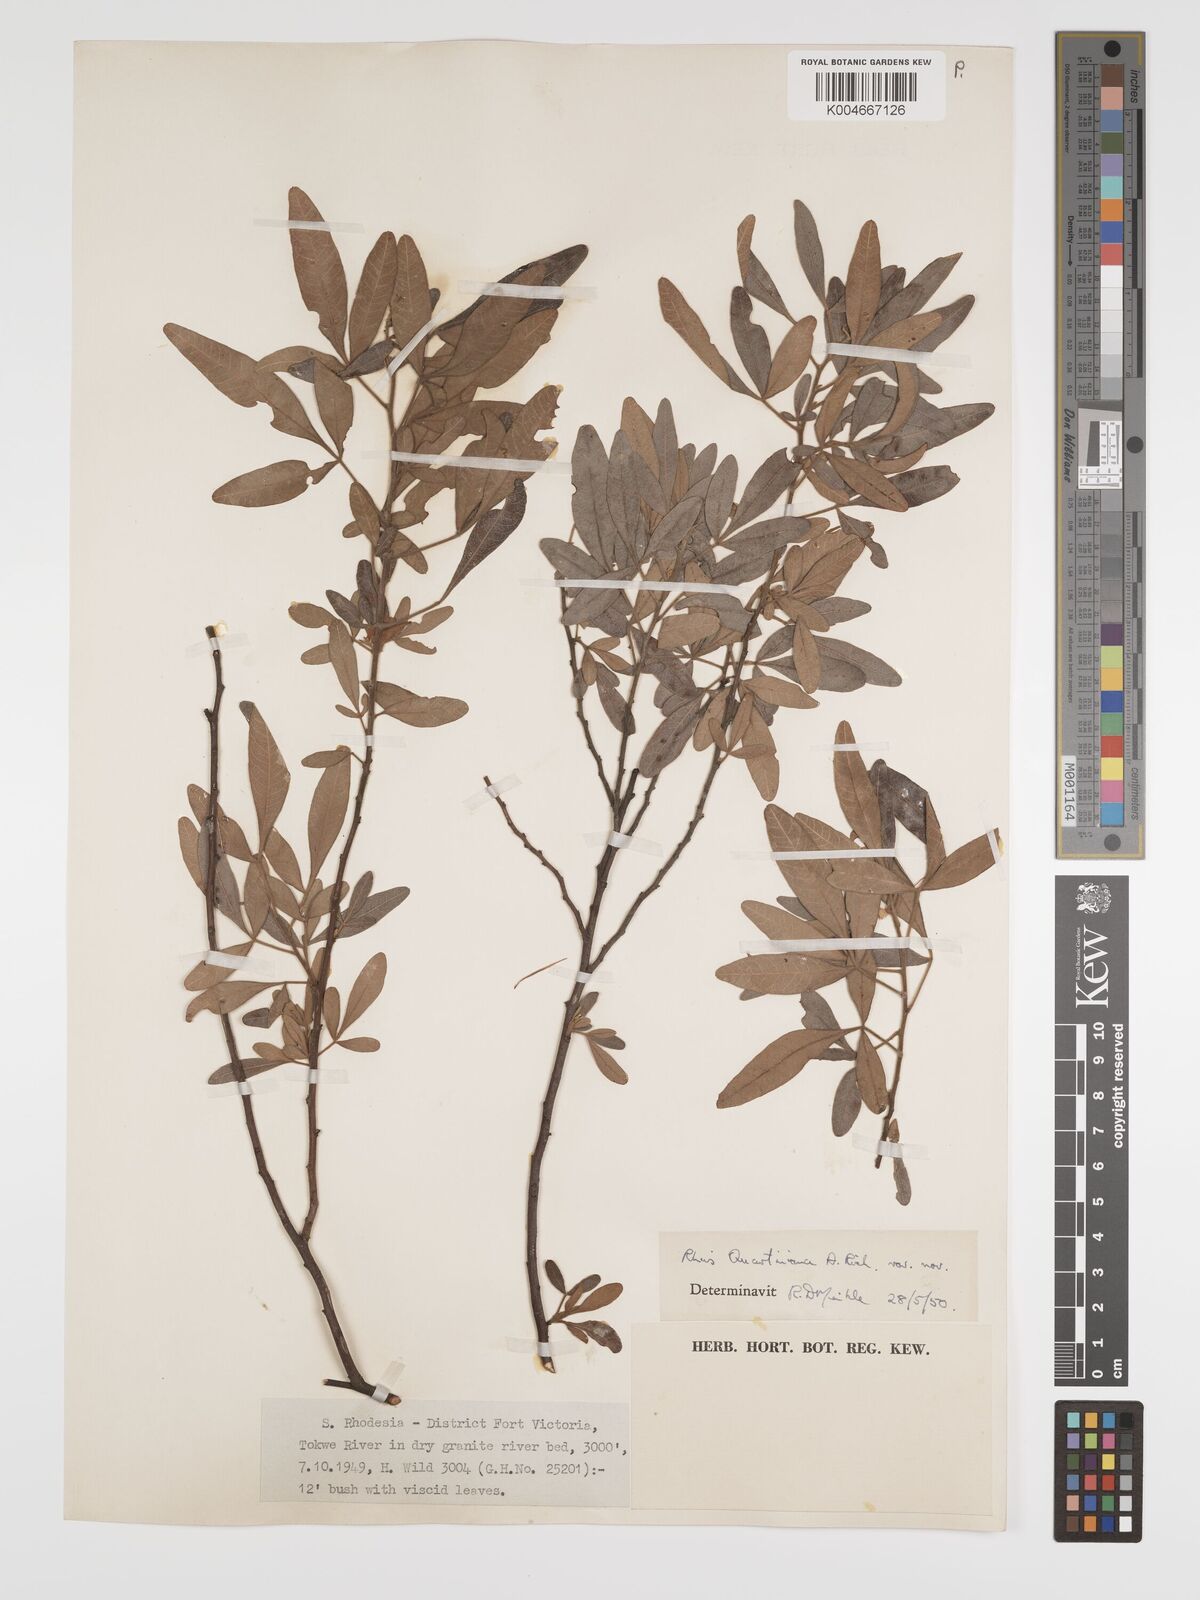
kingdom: Plantae
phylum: Tracheophyta
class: Magnoliopsida
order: Sapindales
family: Anacardiaceae
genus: Searsia
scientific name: Searsia quartiniana
